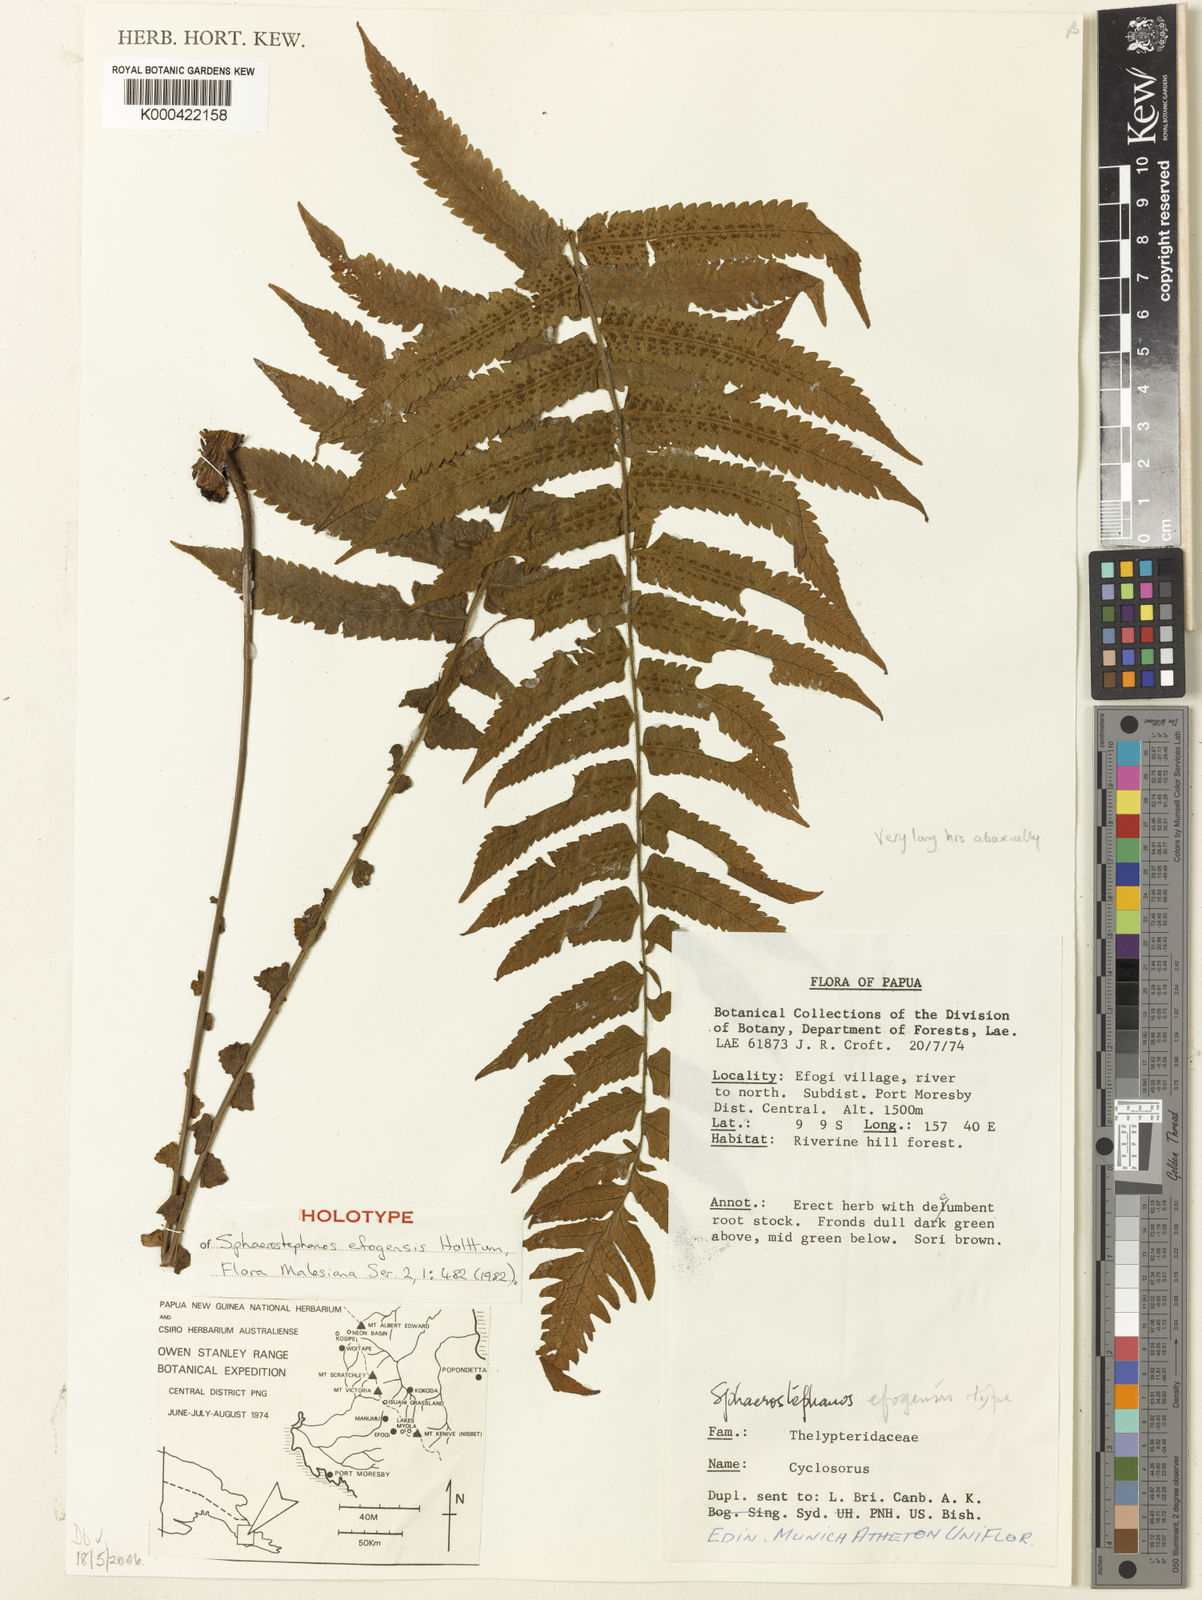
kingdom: Plantae
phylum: Tracheophyta
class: Polypodiopsida
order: Polypodiales
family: Thelypteridaceae
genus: Sphaerostephanos
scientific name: Sphaerostephanos efogensis
